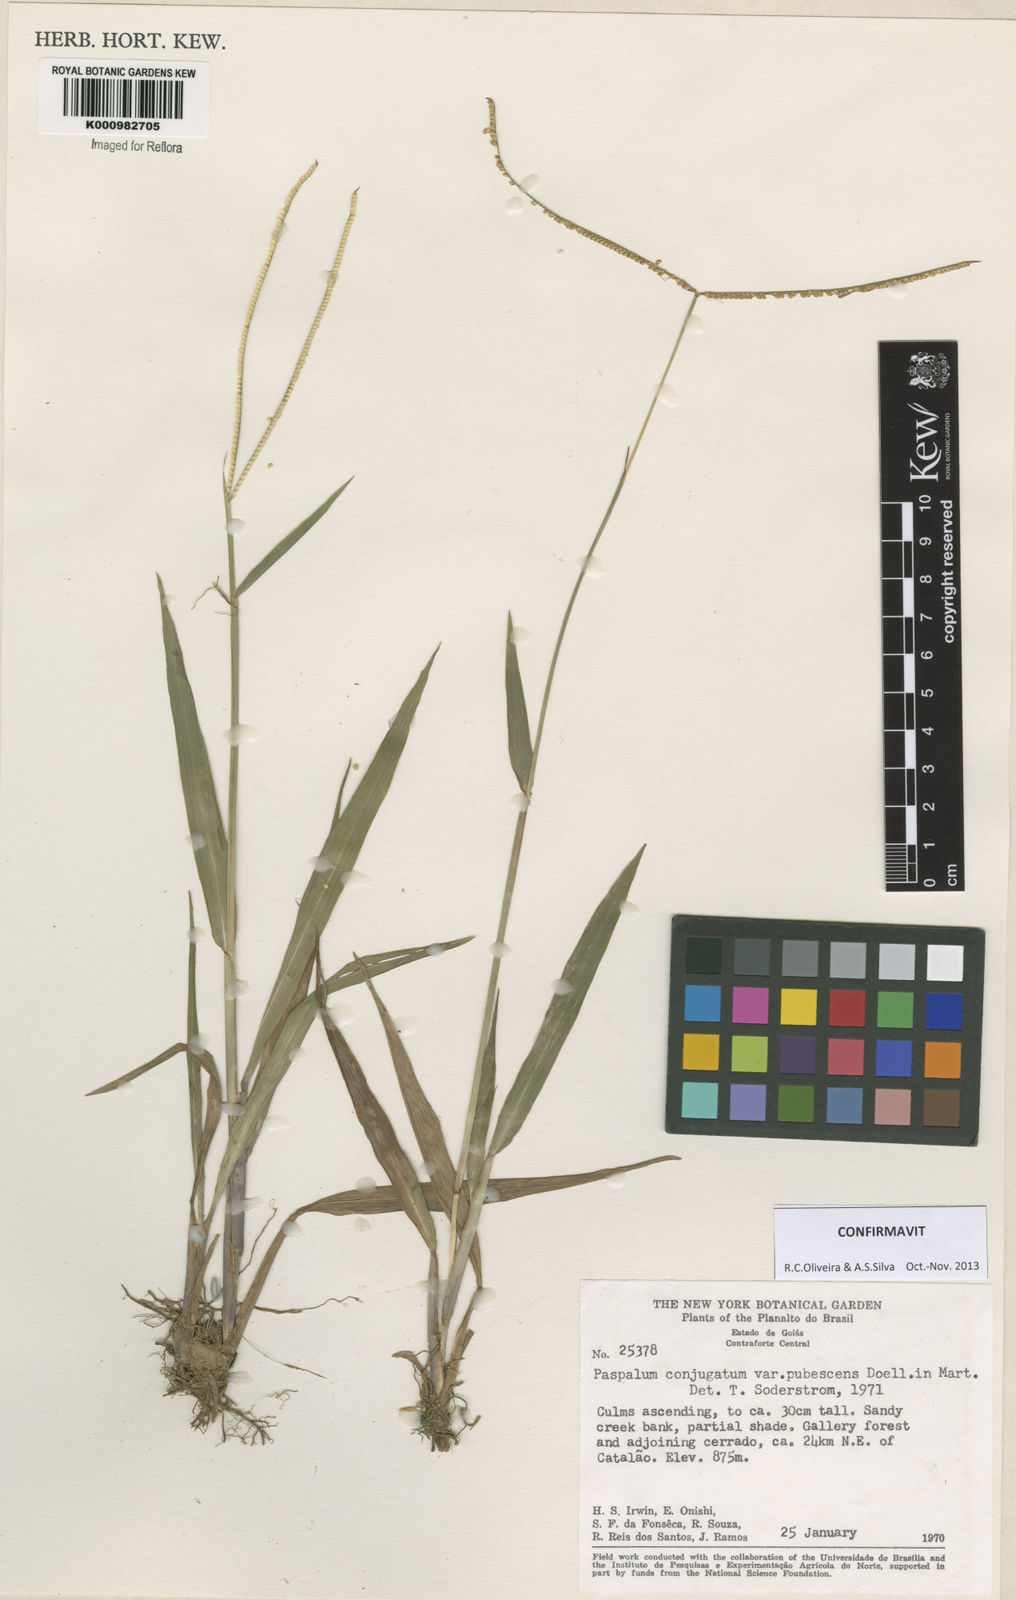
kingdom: Plantae
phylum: Tracheophyta
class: Liliopsida
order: Poales
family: Poaceae
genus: Paspalum
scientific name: Paspalum conjugatum
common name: Hilograss
